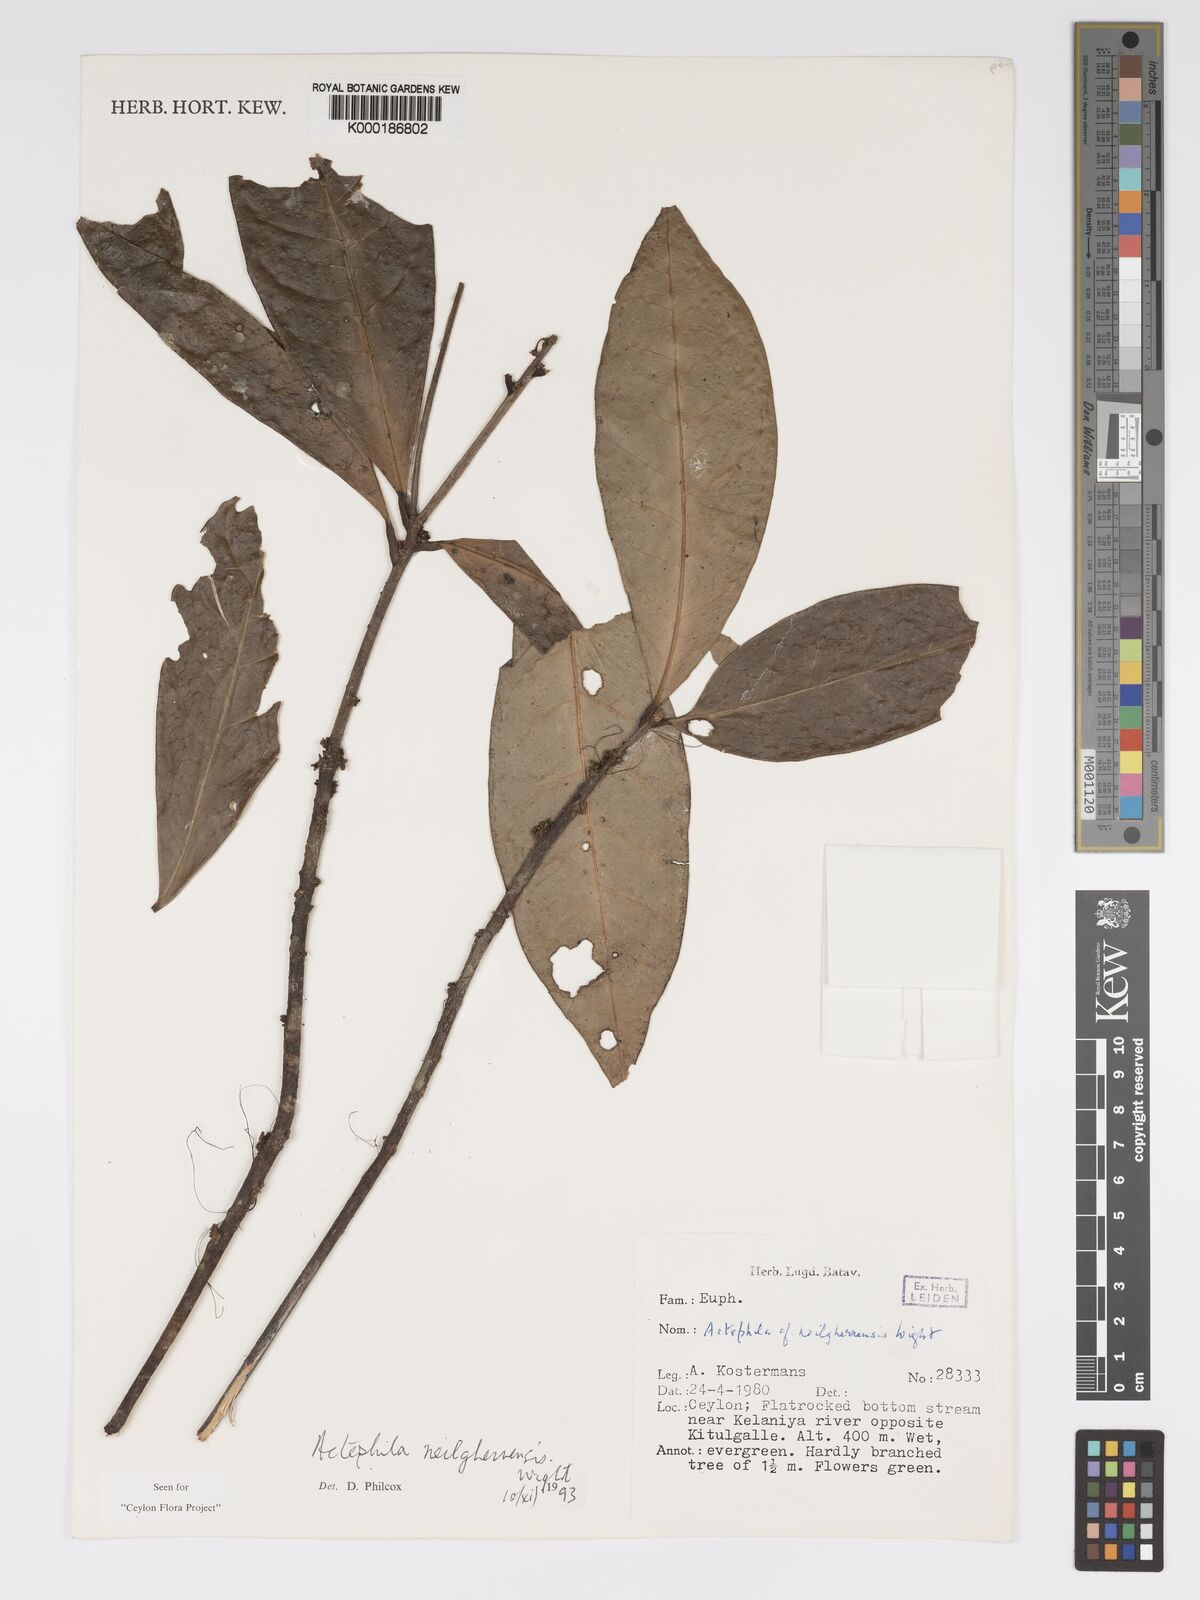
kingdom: Plantae
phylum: Tracheophyta
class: Magnoliopsida
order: Malpighiales
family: Phyllanthaceae
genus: Actephila
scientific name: Actephila excelsa
